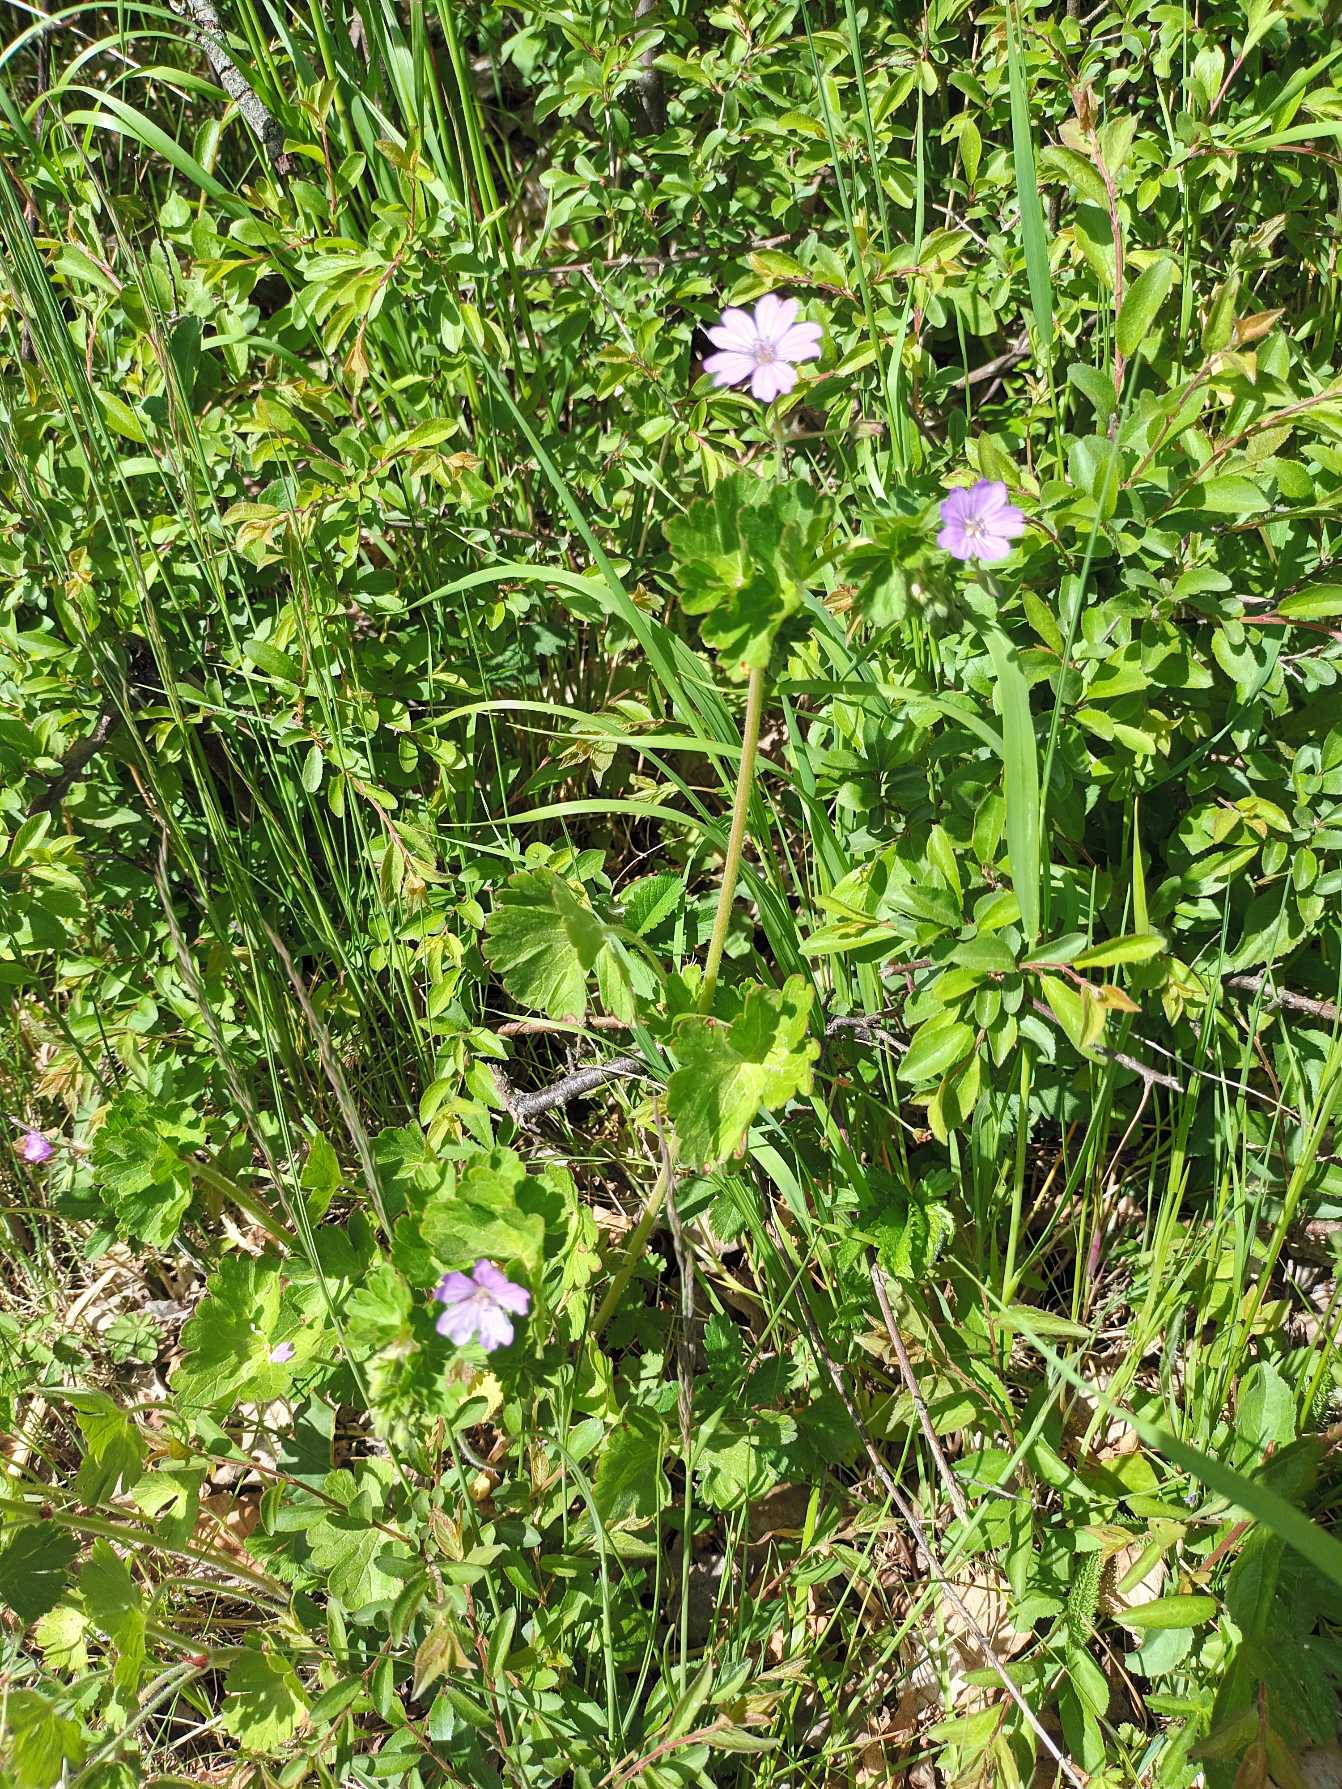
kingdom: Plantae
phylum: Tracheophyta
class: Magnoliopsida
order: Geraniales
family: Geraniaceae
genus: Geranium
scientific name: Geranium pyrenaicum
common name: Pyrenæisk storkenæb
